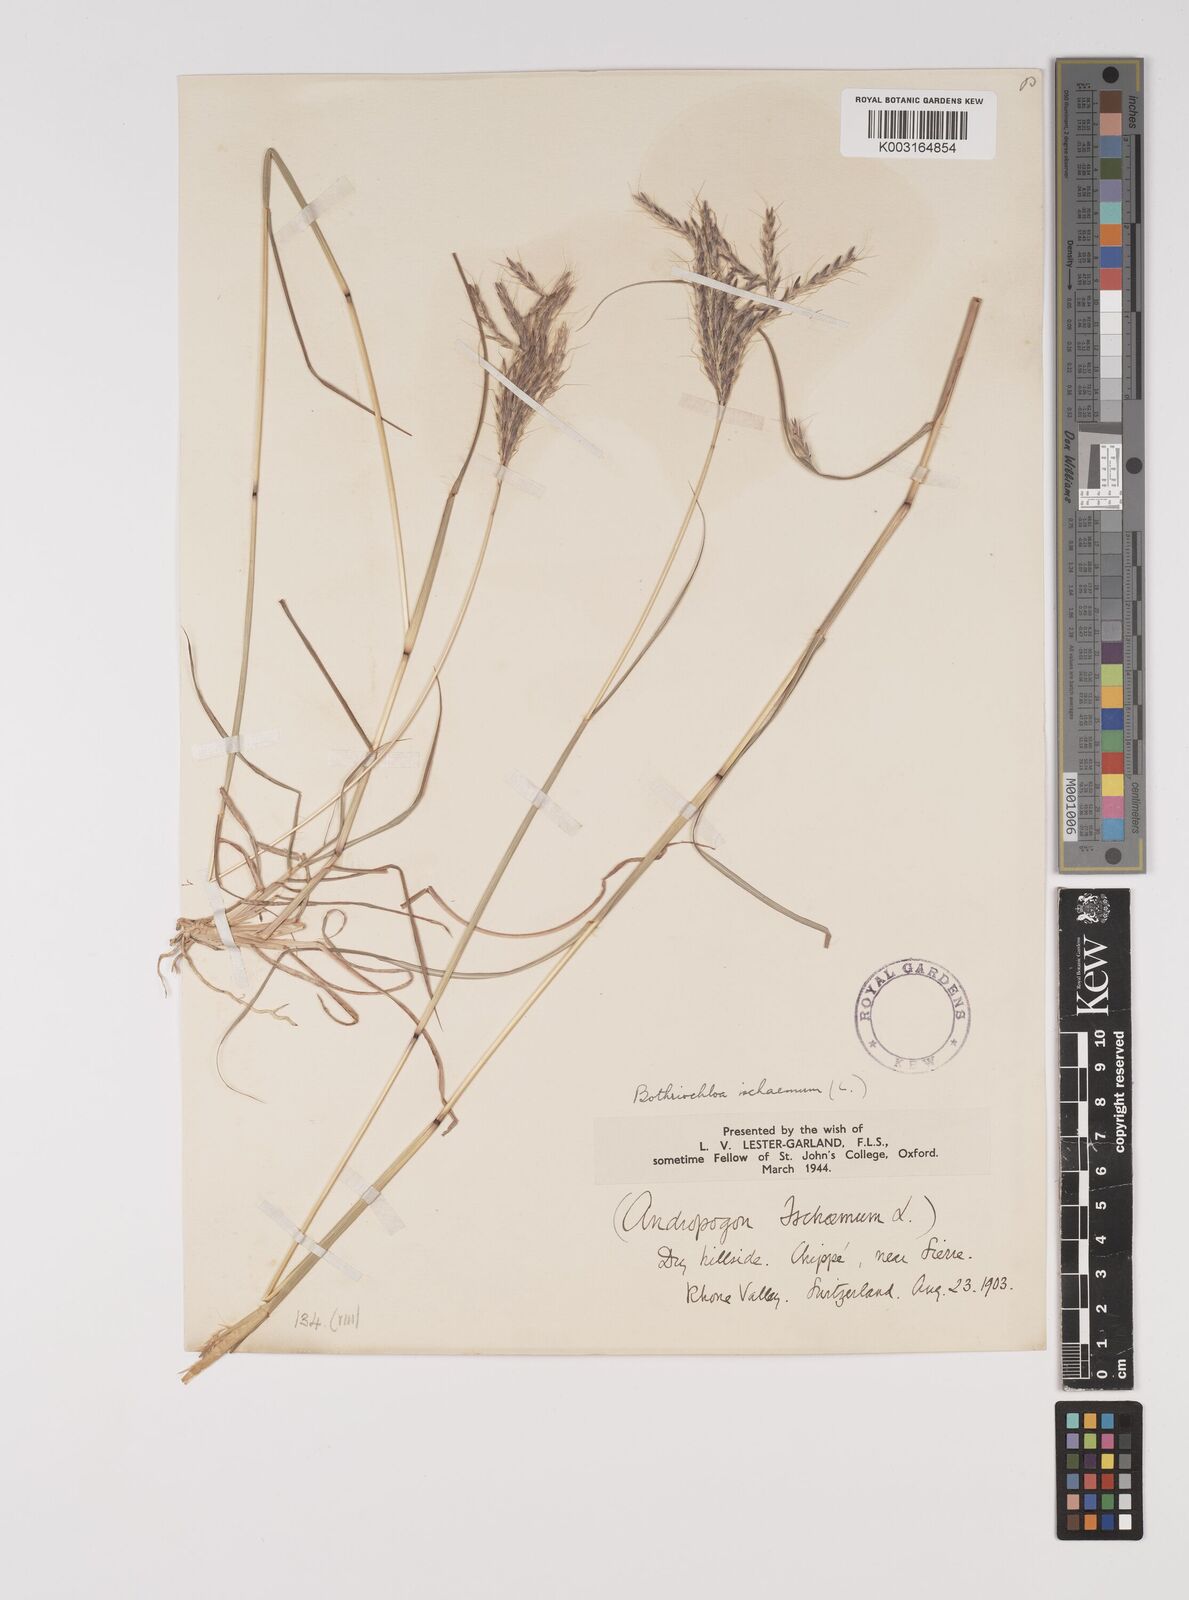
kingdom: Plantae
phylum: Tracheophyta
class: Liliopsida
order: Poales
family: Poaceae
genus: Bothriochloa
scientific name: Bothriochloa ischaemum
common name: Yellow bluestem
